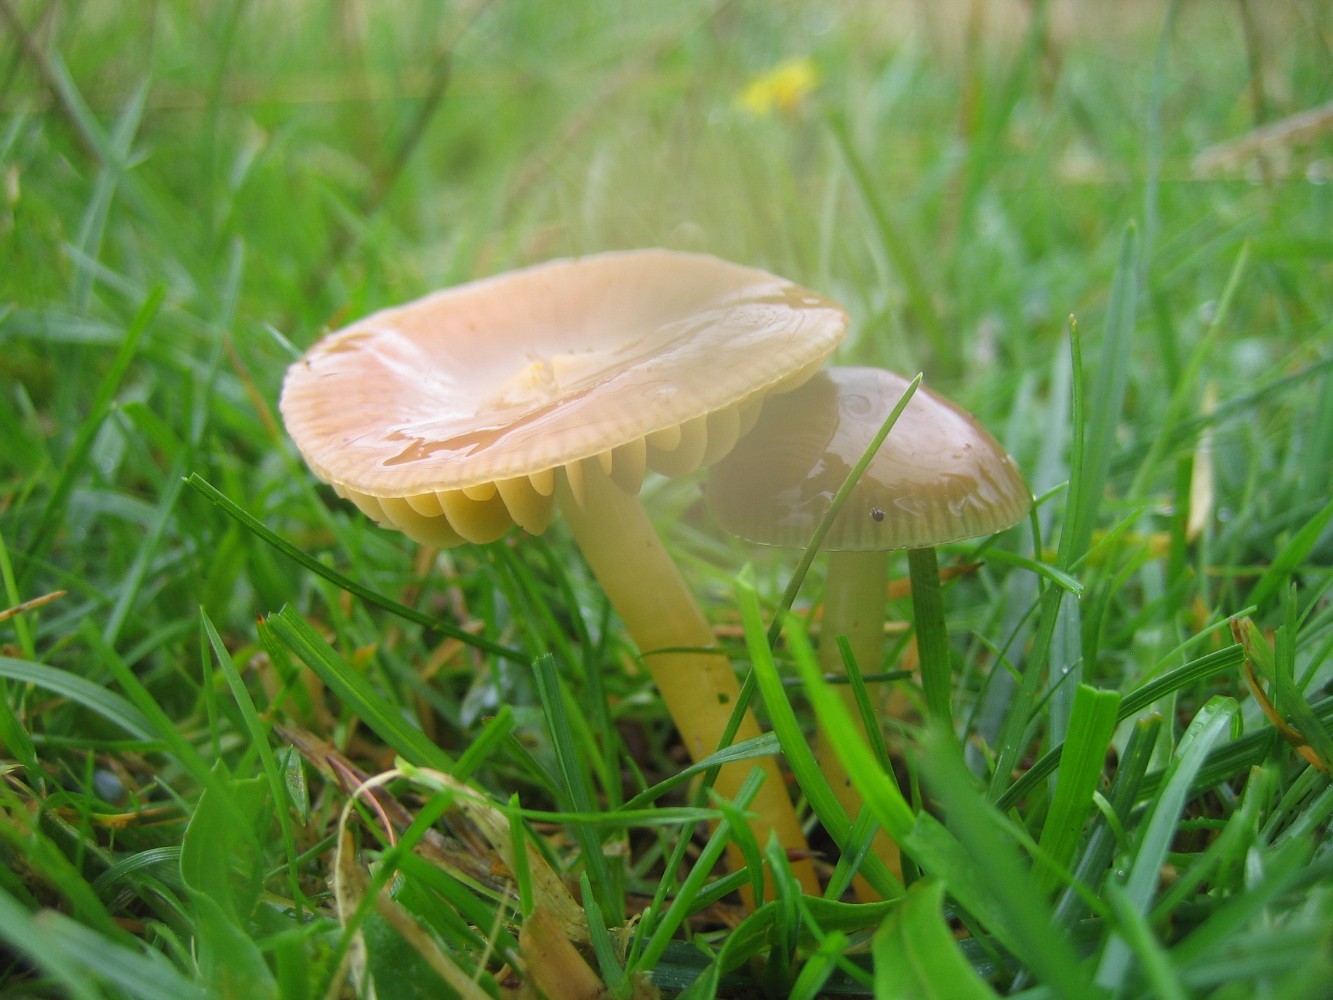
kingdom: Fungi
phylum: Basidiomycota
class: Agaricomycetes
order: Agaricales
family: Hygrophoraceae
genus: Gliophorus
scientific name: Gliophorus psittacinus
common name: papegøje-vokshat
